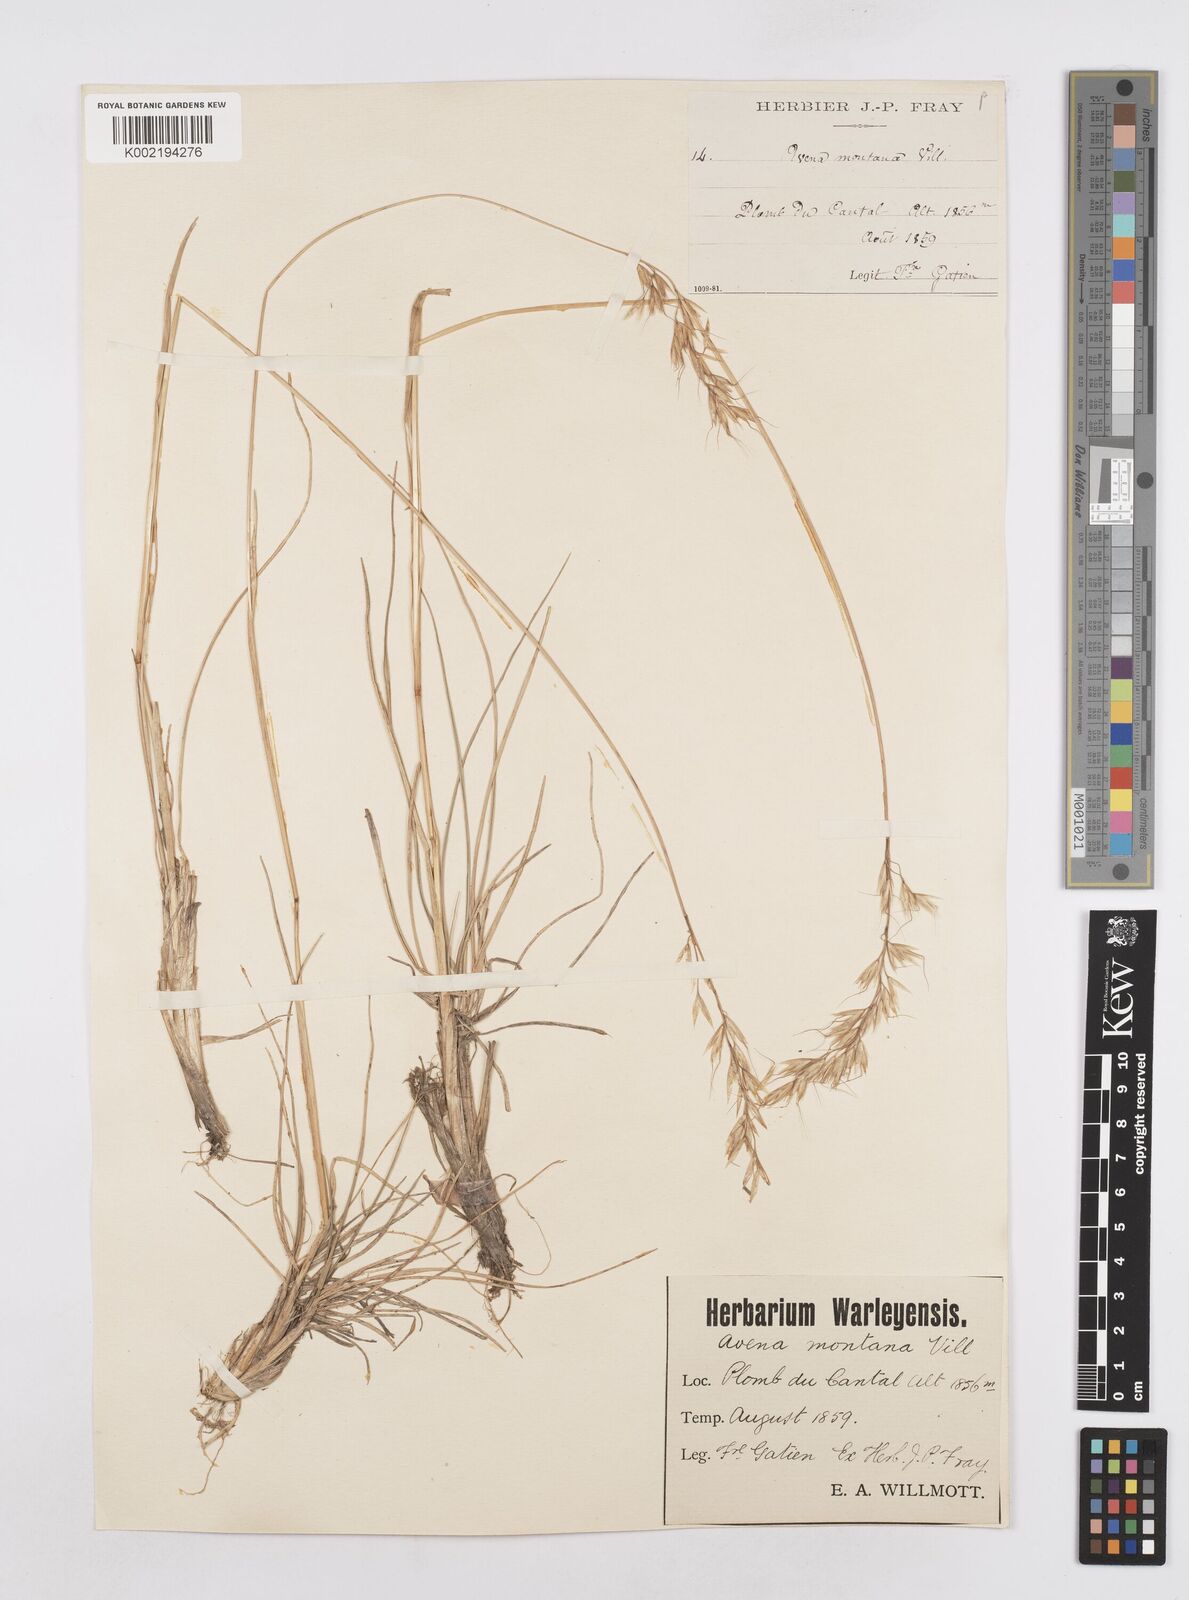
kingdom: Plantae
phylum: Tracheophyta
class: Liliopsida
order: Poales
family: Poaceae
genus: Helictotrichon
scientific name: Helictotrichon sedenense
